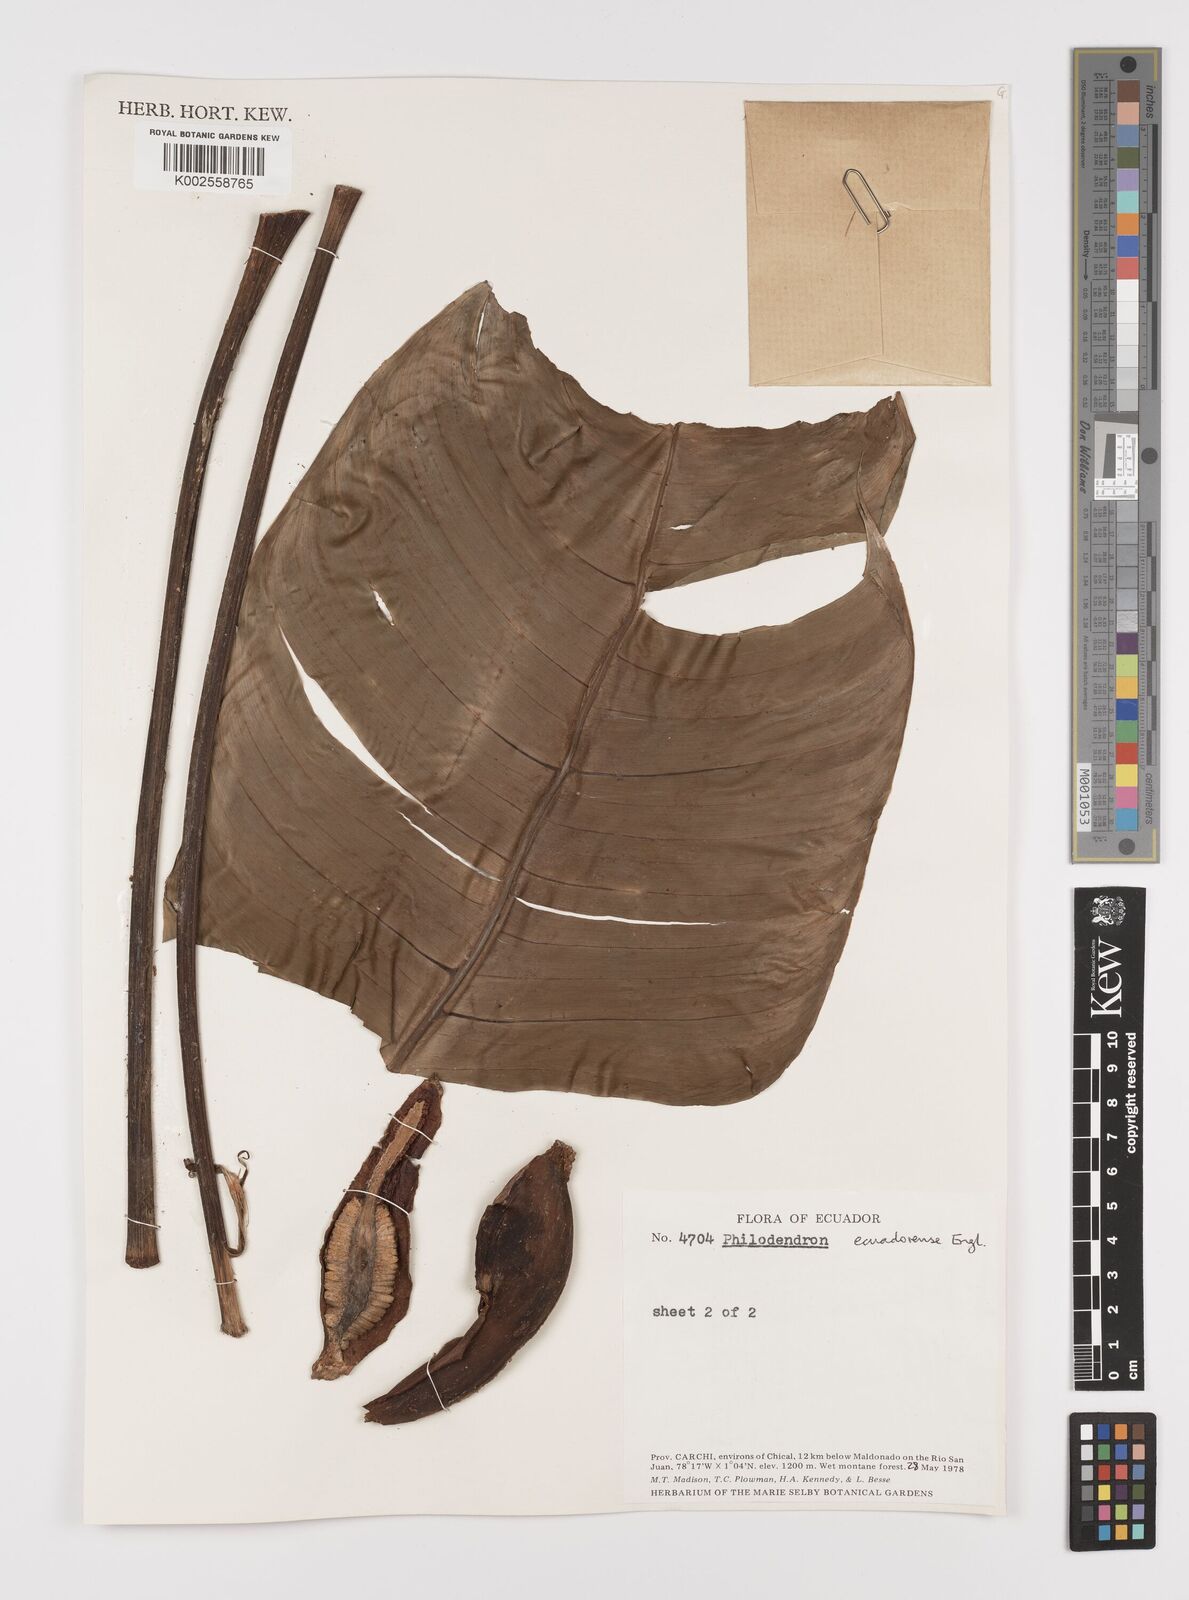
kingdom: Plantae
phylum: Tracheophyta
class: Liliopsida
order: Alismatales
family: Araceae
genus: Philodendron
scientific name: Philodendron tenue
